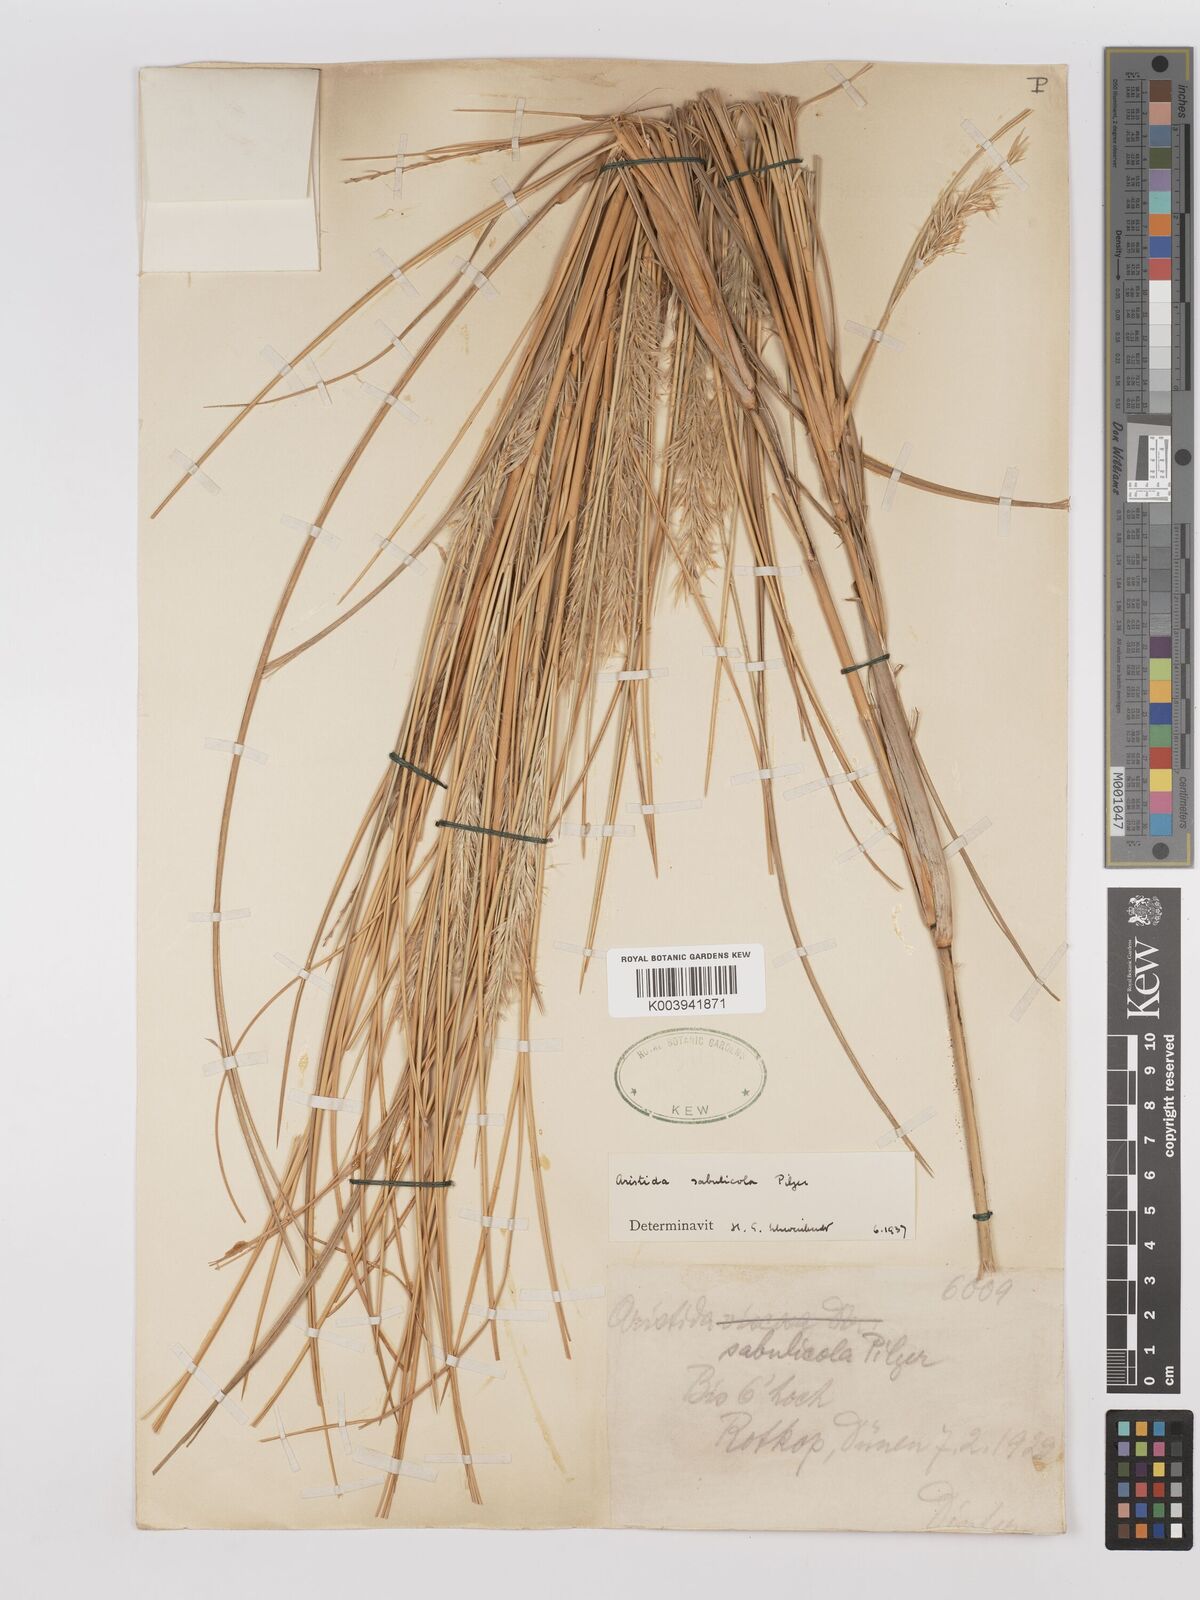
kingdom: Plantae
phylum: Tracheophyta
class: Liliopsida
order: Poales
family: Poaceae
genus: Stipagrostis
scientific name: Stipagrostis sabulicola
